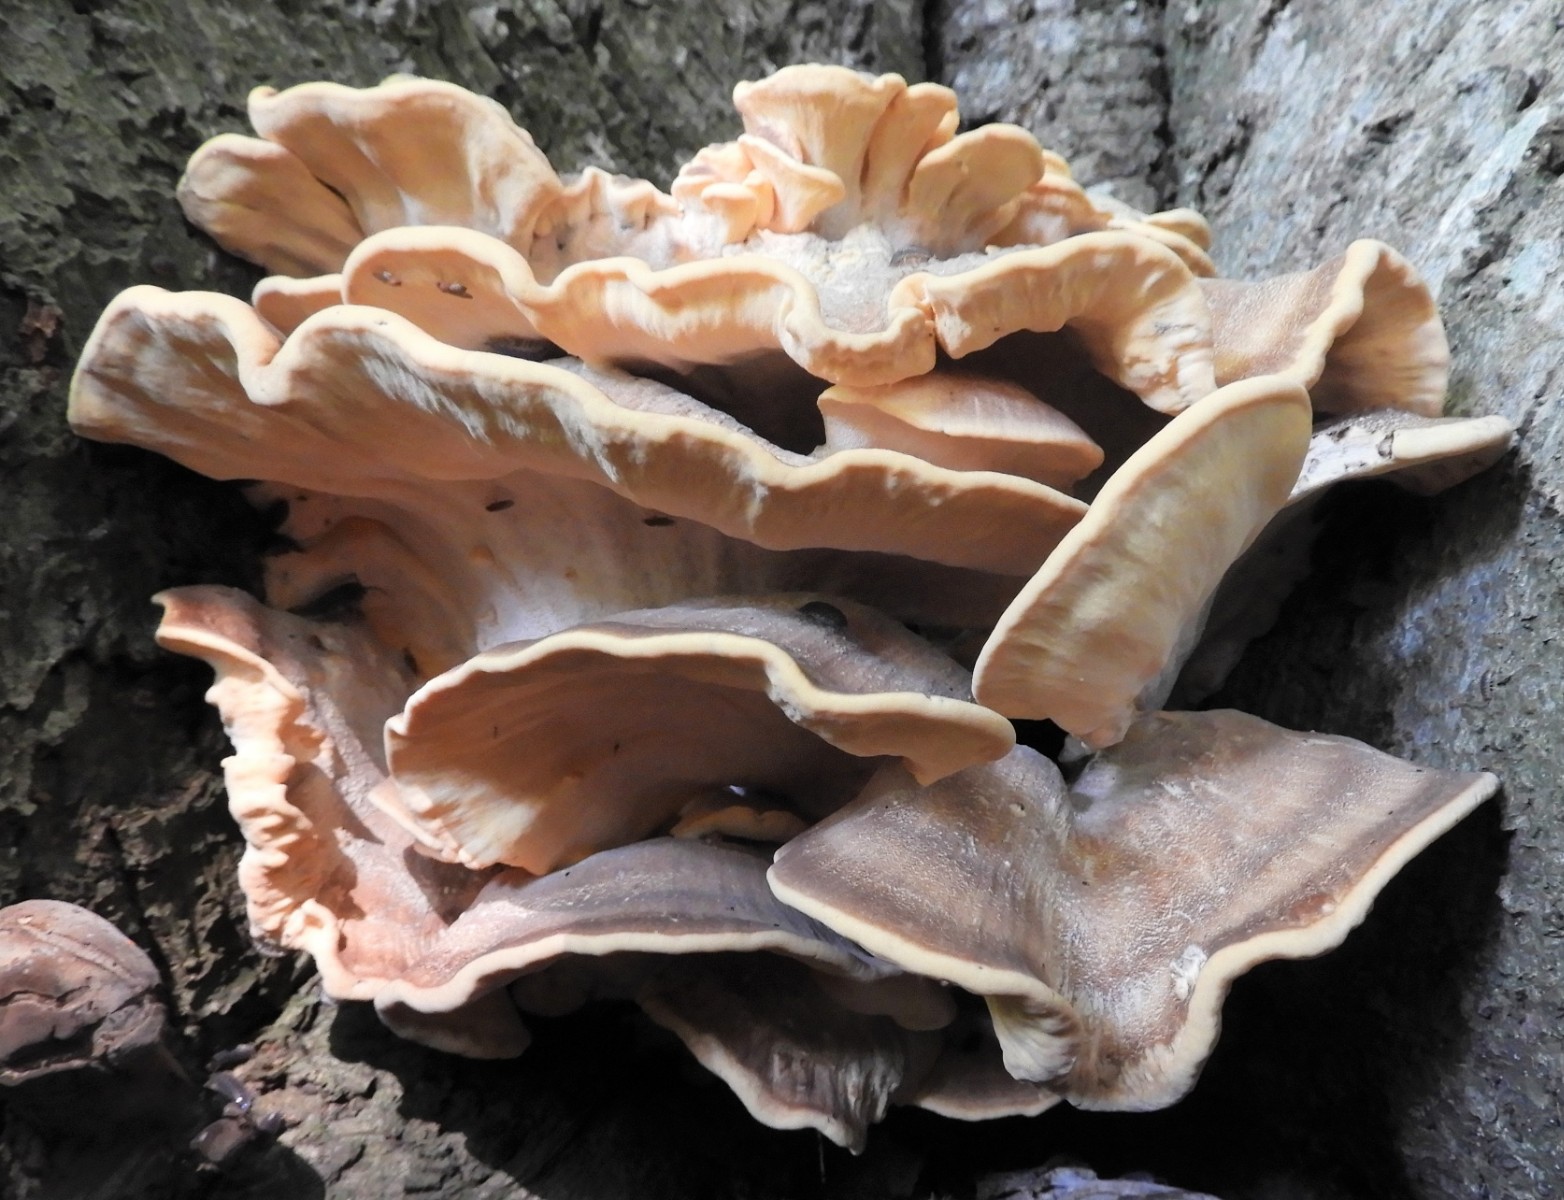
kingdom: Fungi
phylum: Basidiomycota
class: Agaricomycetes
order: Polyporales
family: Meripilaceae
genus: Meripilus
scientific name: Meripilus giganteus
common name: kæmpeporesvamp
